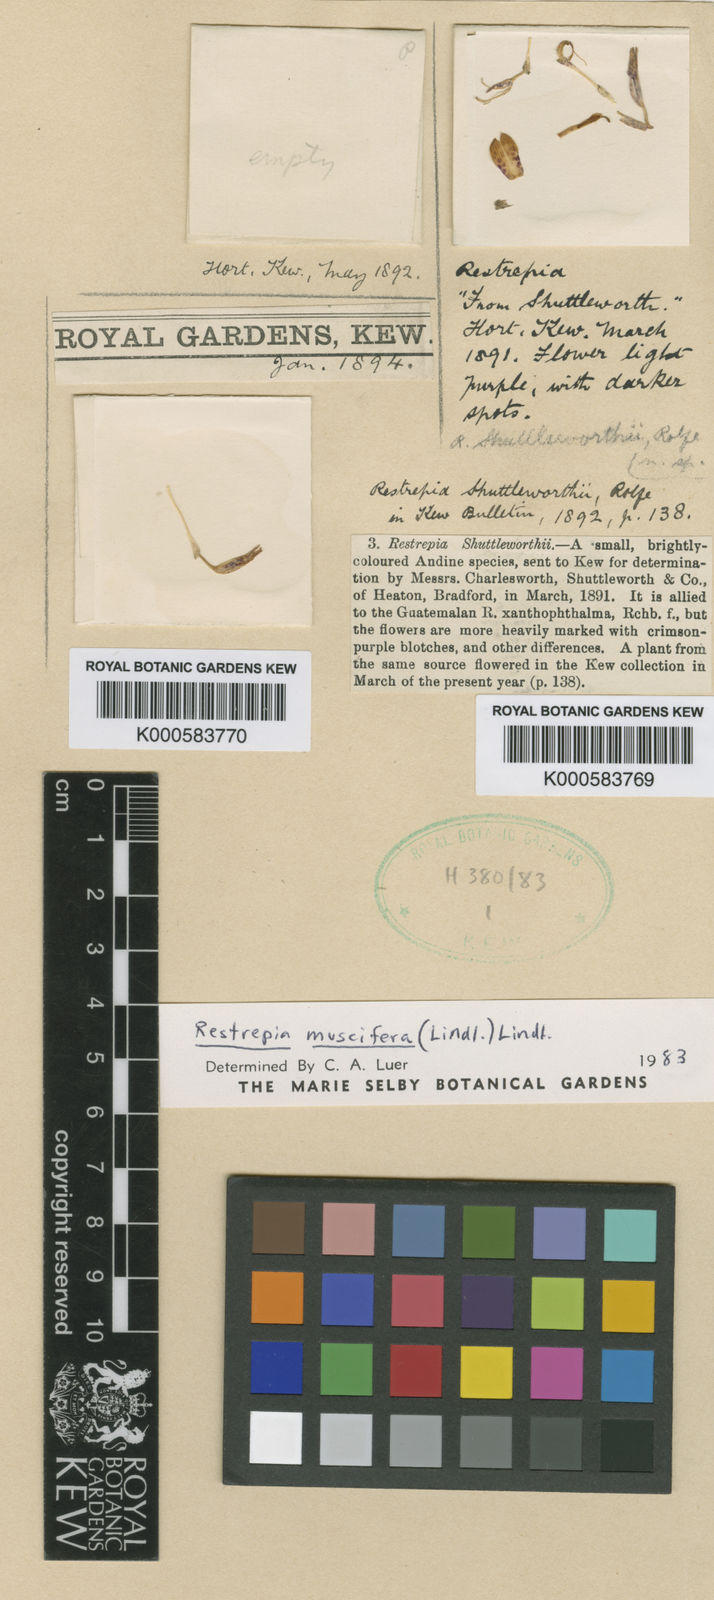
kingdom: Plantae
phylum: Tracheophyta
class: Liliopsida
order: Asparagales
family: Orchidaceae
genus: Restrepia
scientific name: Restrepia muscifera
